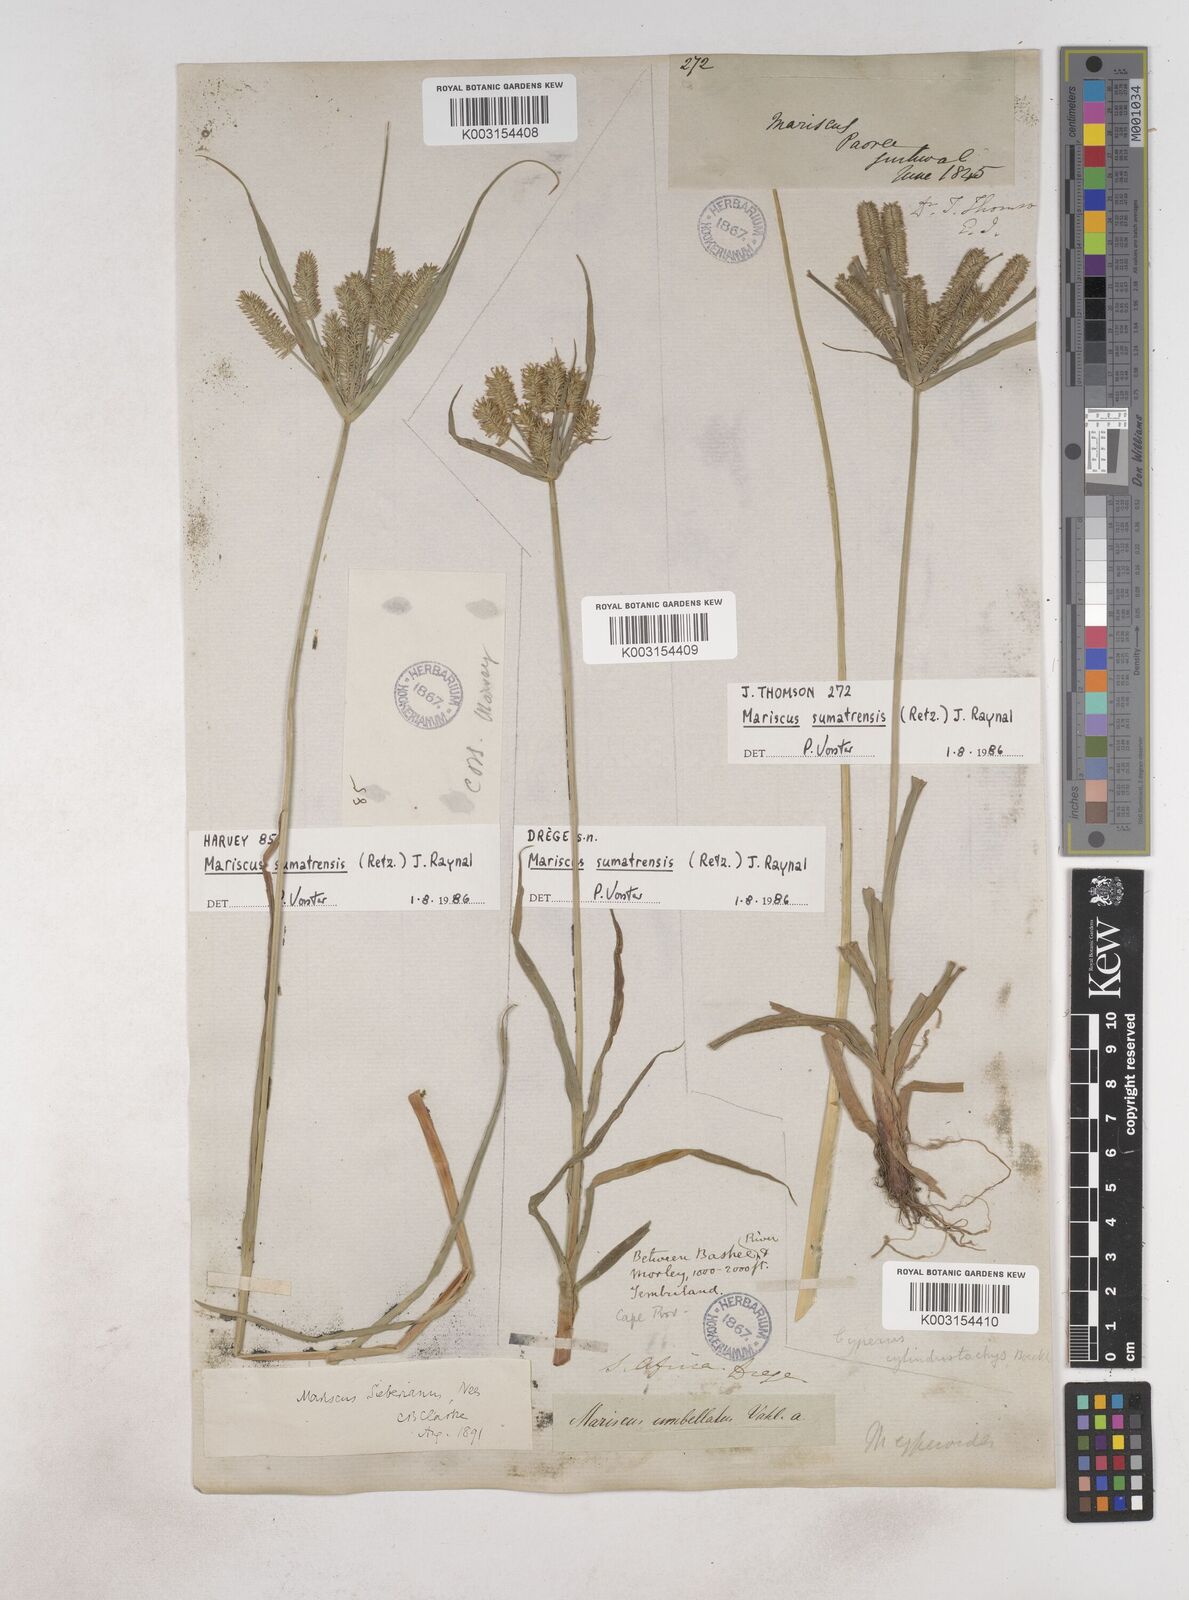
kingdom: Plantae
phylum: Tracheophyta
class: Liliopsida
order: Poales
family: Cyperaceae
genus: Cyperus
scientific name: Cyperus cyperoides
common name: Pacific island flat sedge
